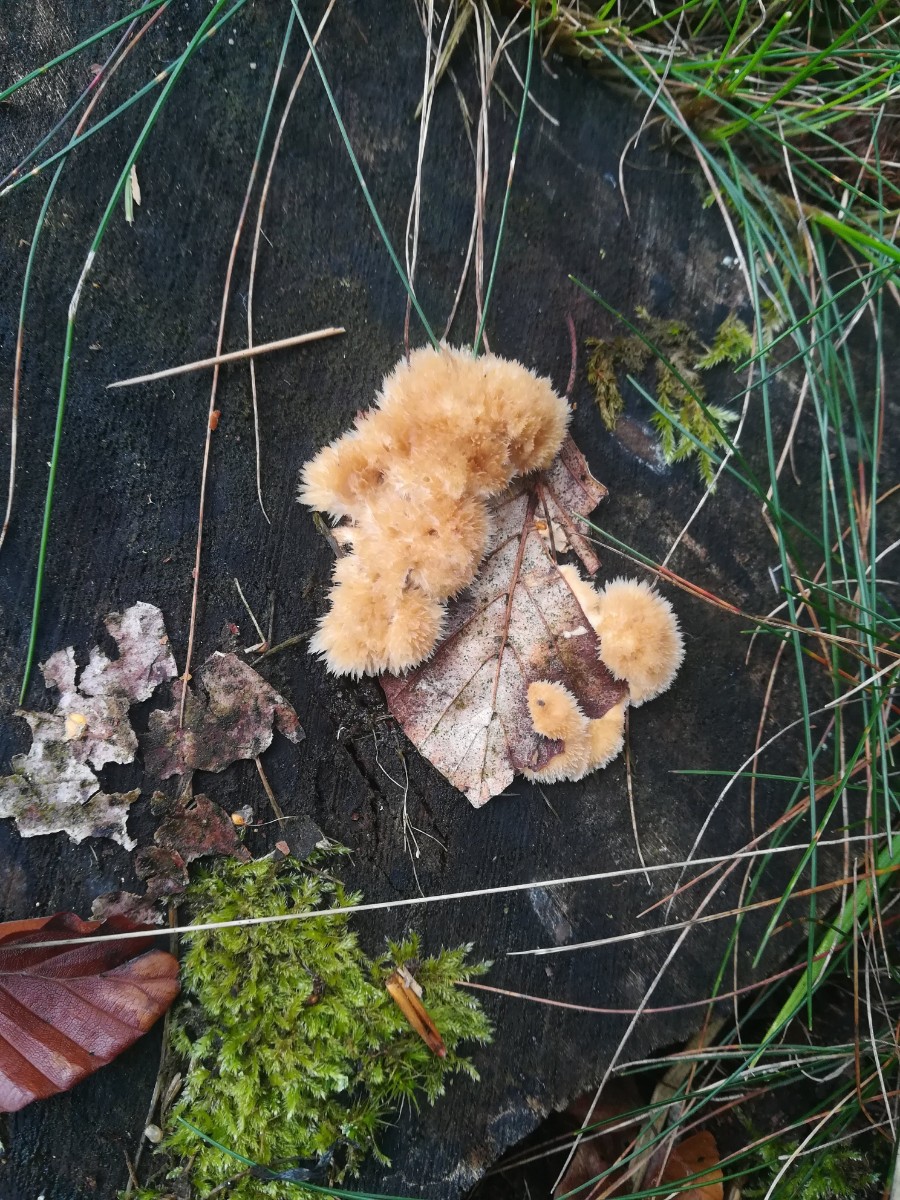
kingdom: Fungi
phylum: Basidiomycota
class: Agaricomycetes
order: Polyporales
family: Dacryobolaceae
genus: Postia
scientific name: Postia ptychogaster
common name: støvende kødporesvamp
